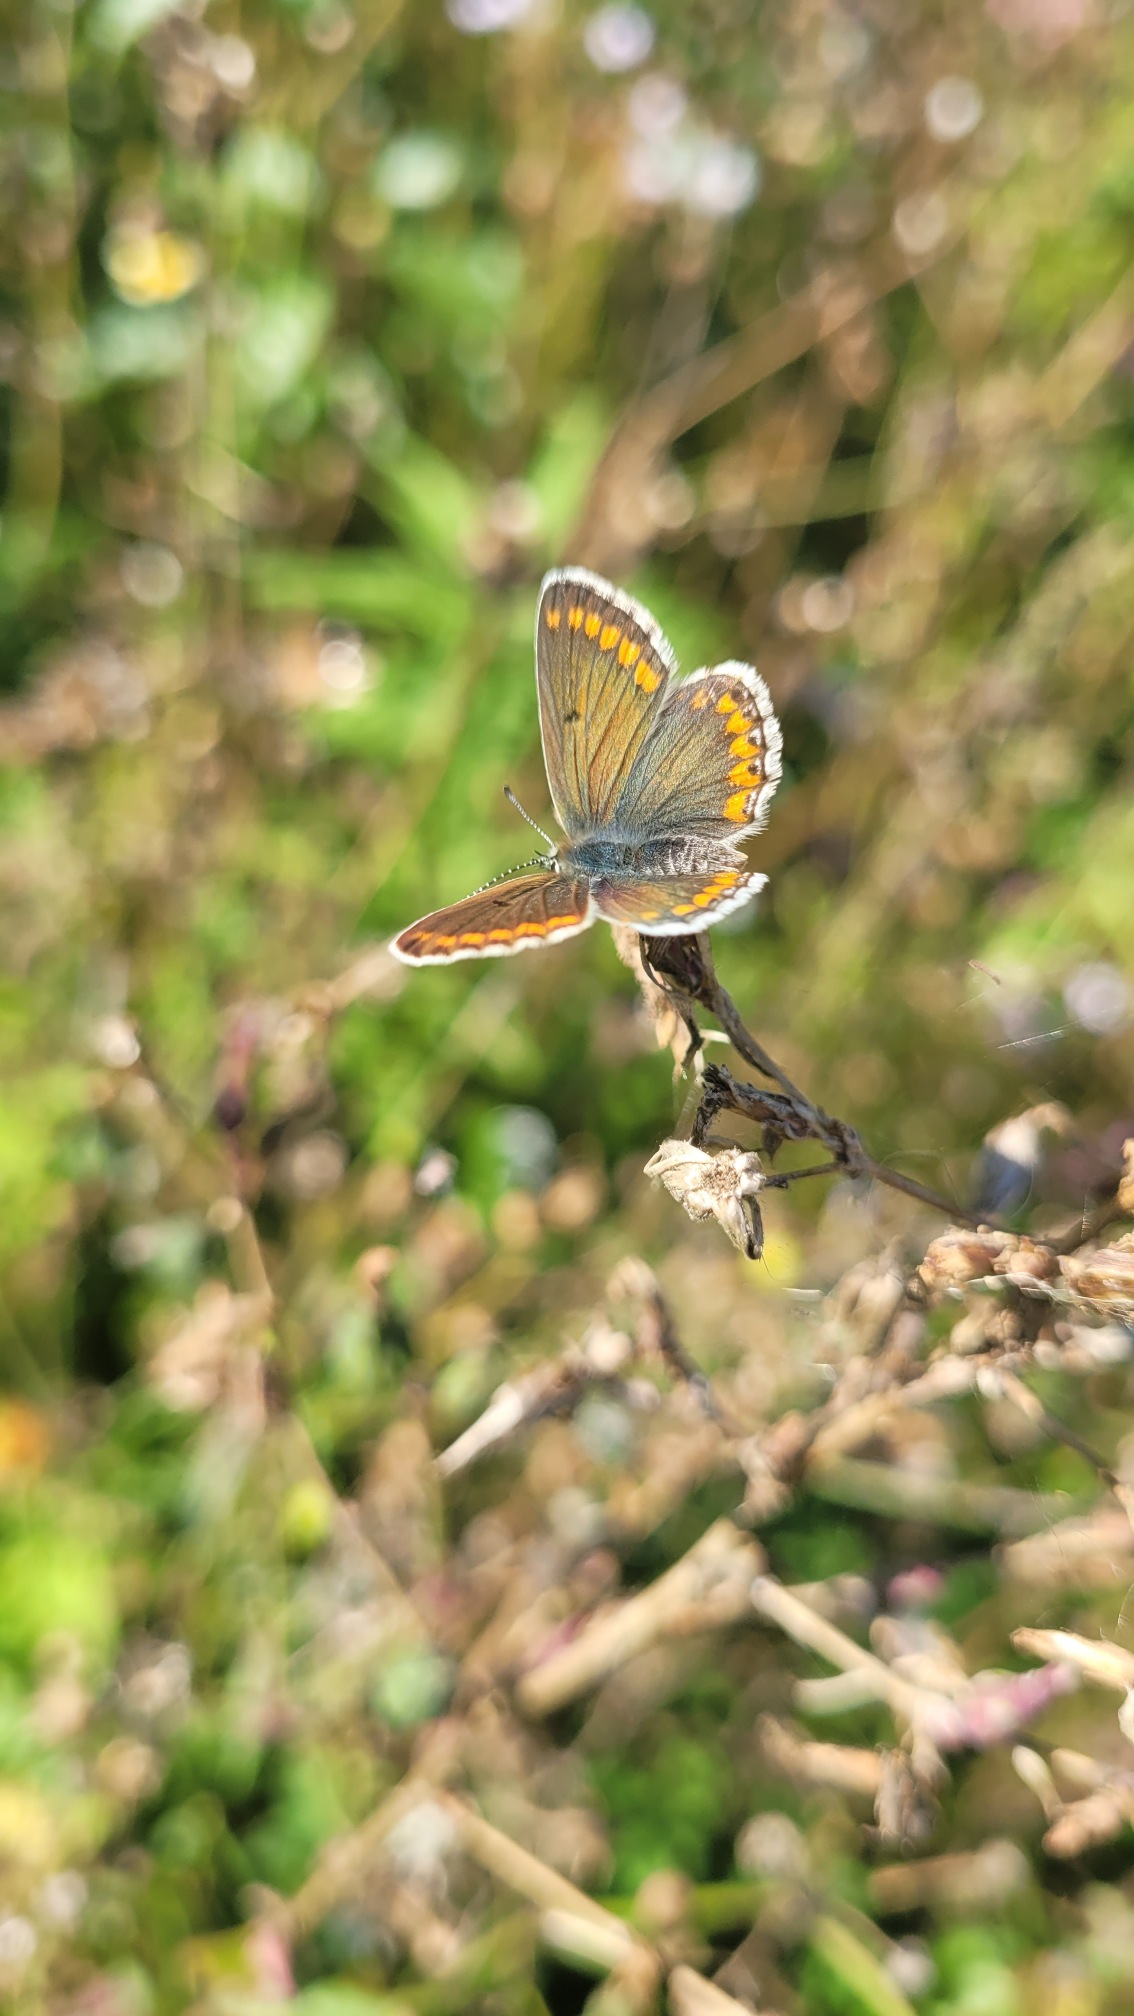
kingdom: Animalia
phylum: Arthropoda
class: Insecta
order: Lepidoptera
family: Lycaenidae
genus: Aricia
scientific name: Aricia agestis
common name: Rødplettet blåfugl
